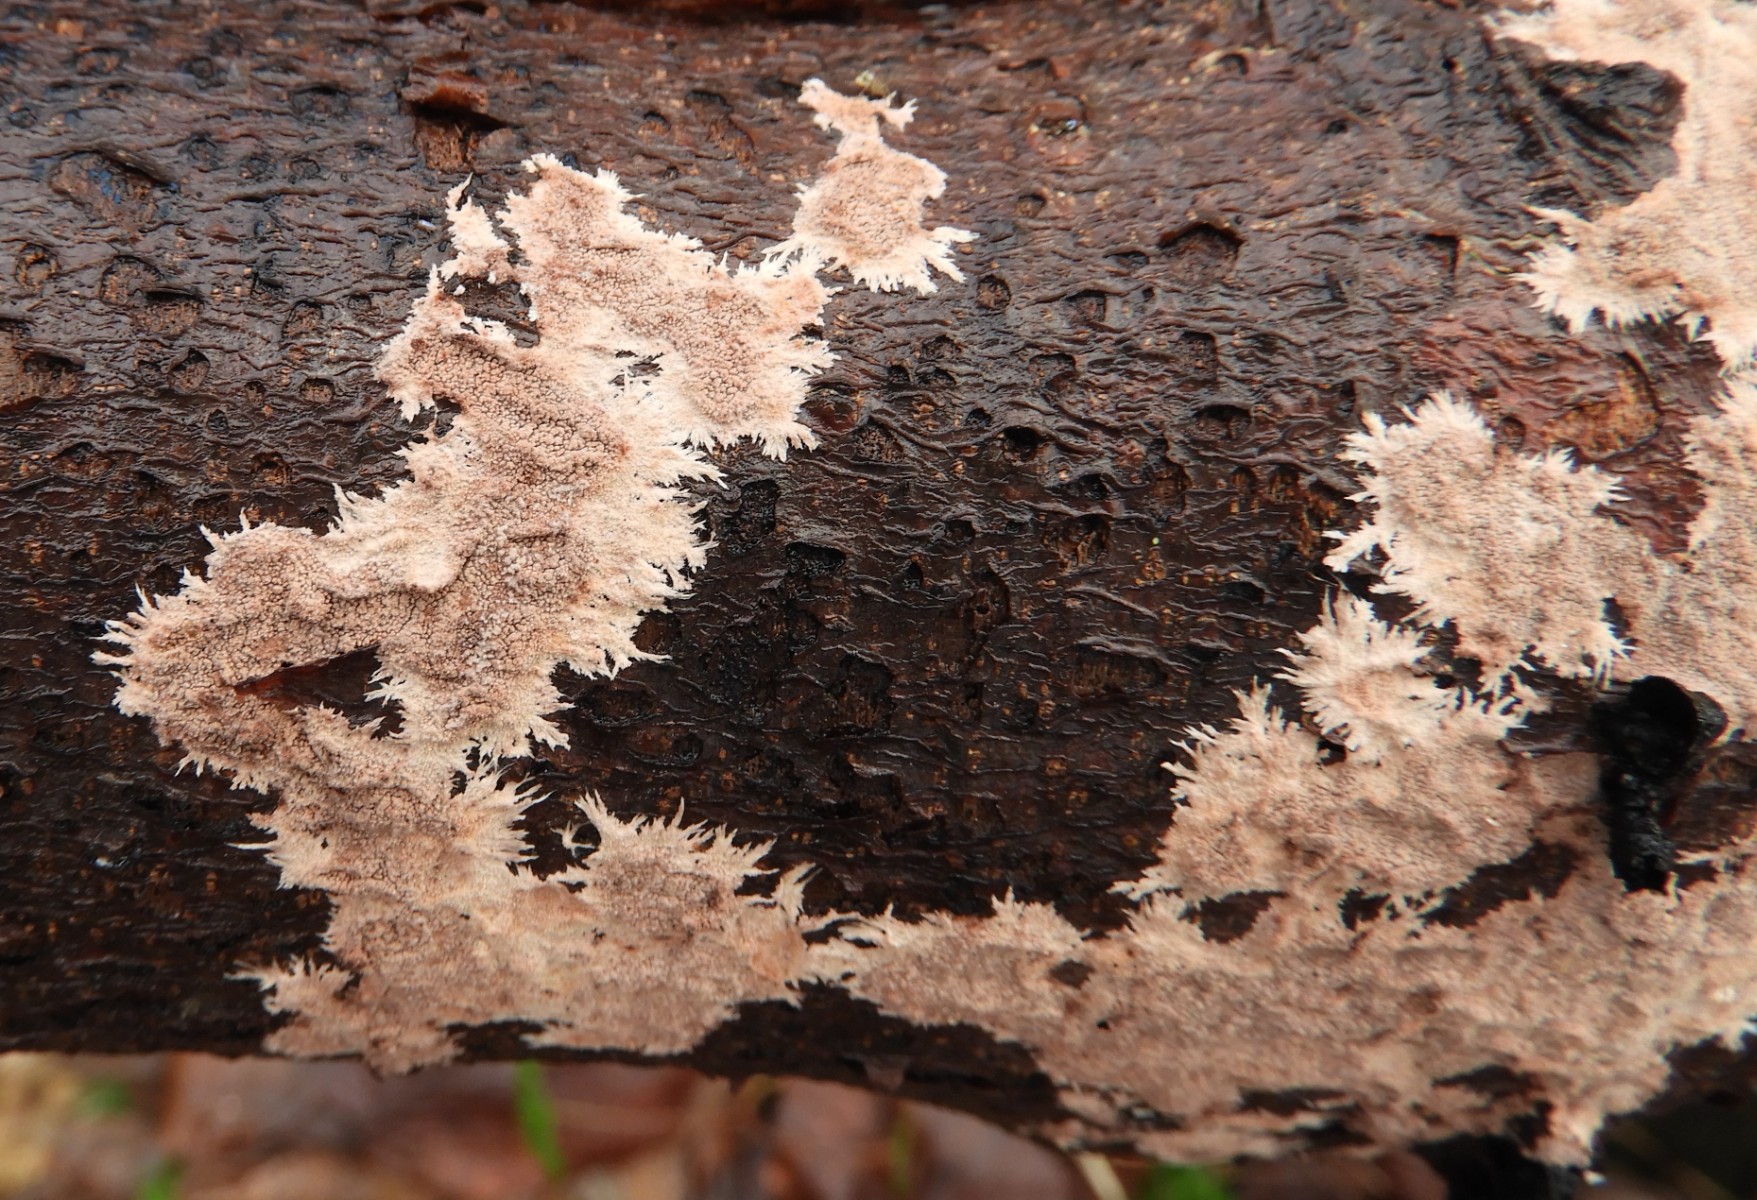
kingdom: Fungi
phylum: Basidiomycota
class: Agaricomycetes
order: Polyporales
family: Steccherinaceae
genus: Steccherinum
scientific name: Steccherinum fimbriatum
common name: trådet skønpig
